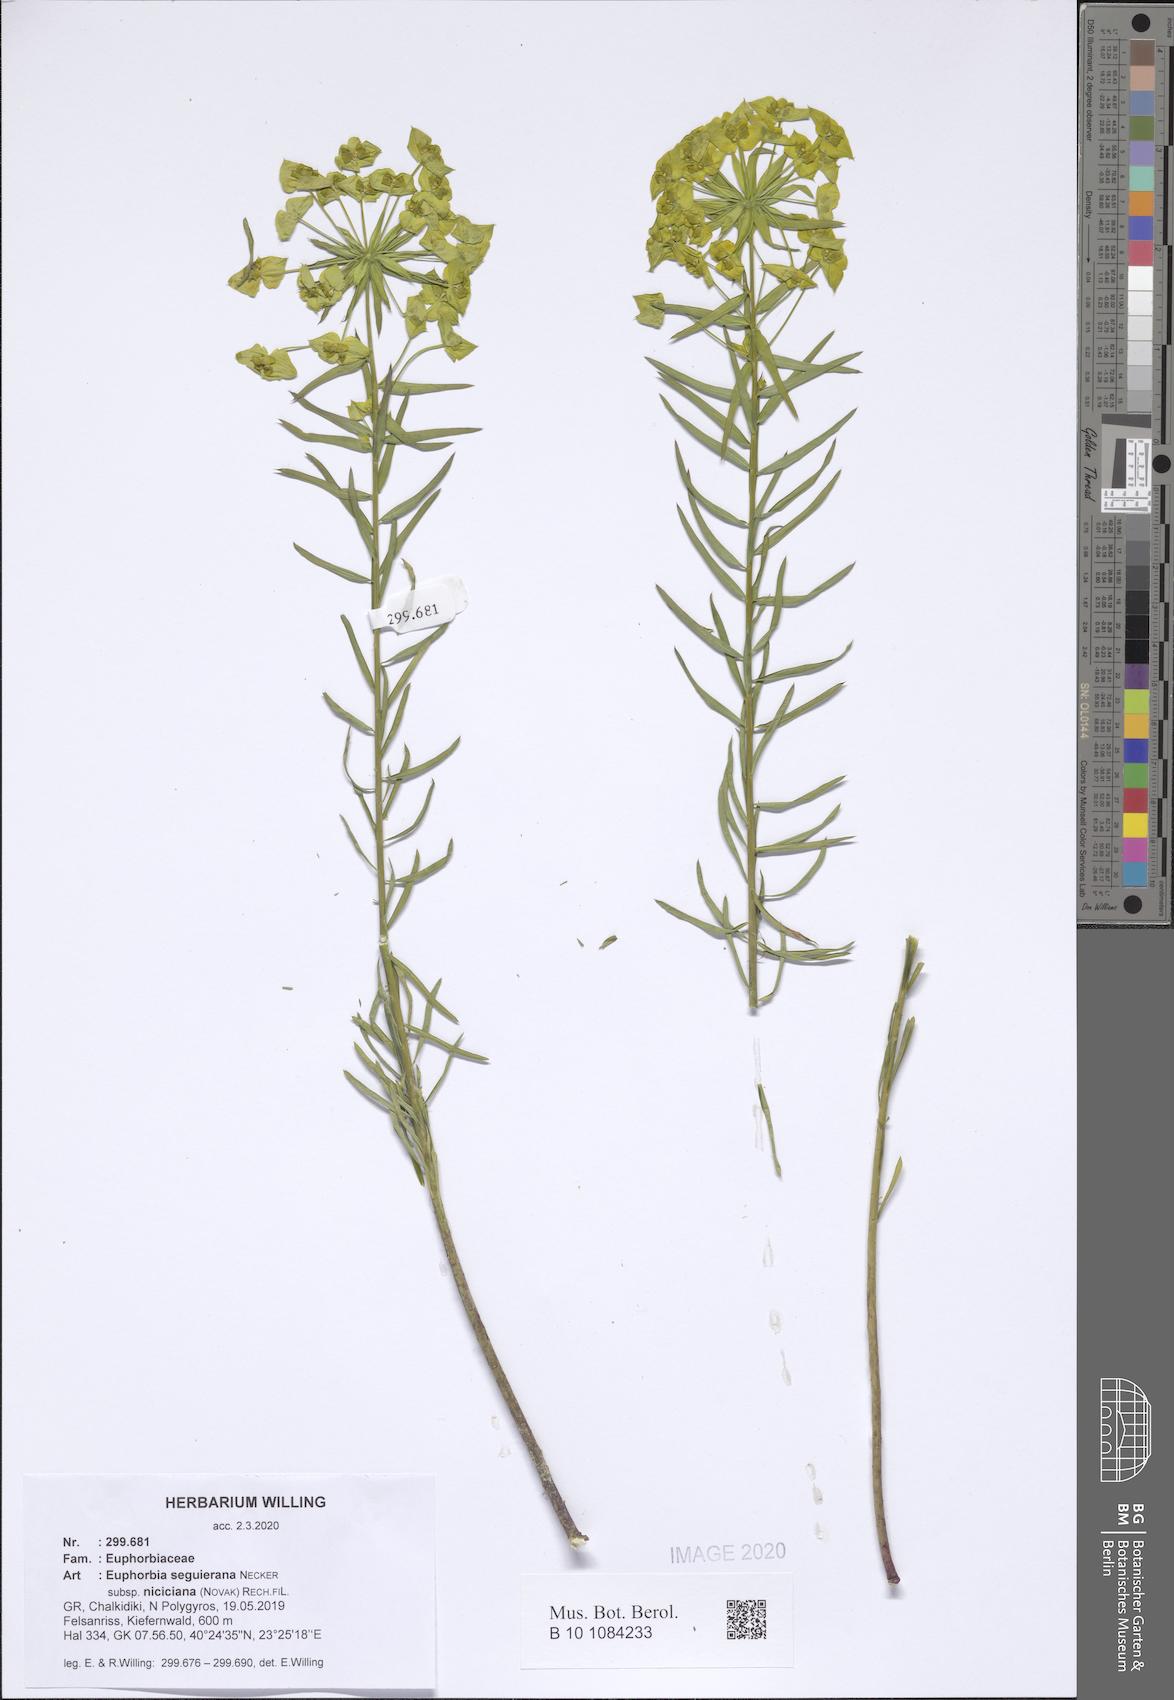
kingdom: Plantae
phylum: Tracheophyta
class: Magnoliopsida
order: Malpighiales
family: Euphorbiaceae
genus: Euphorbia
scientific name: Euphorbia seguieriana
